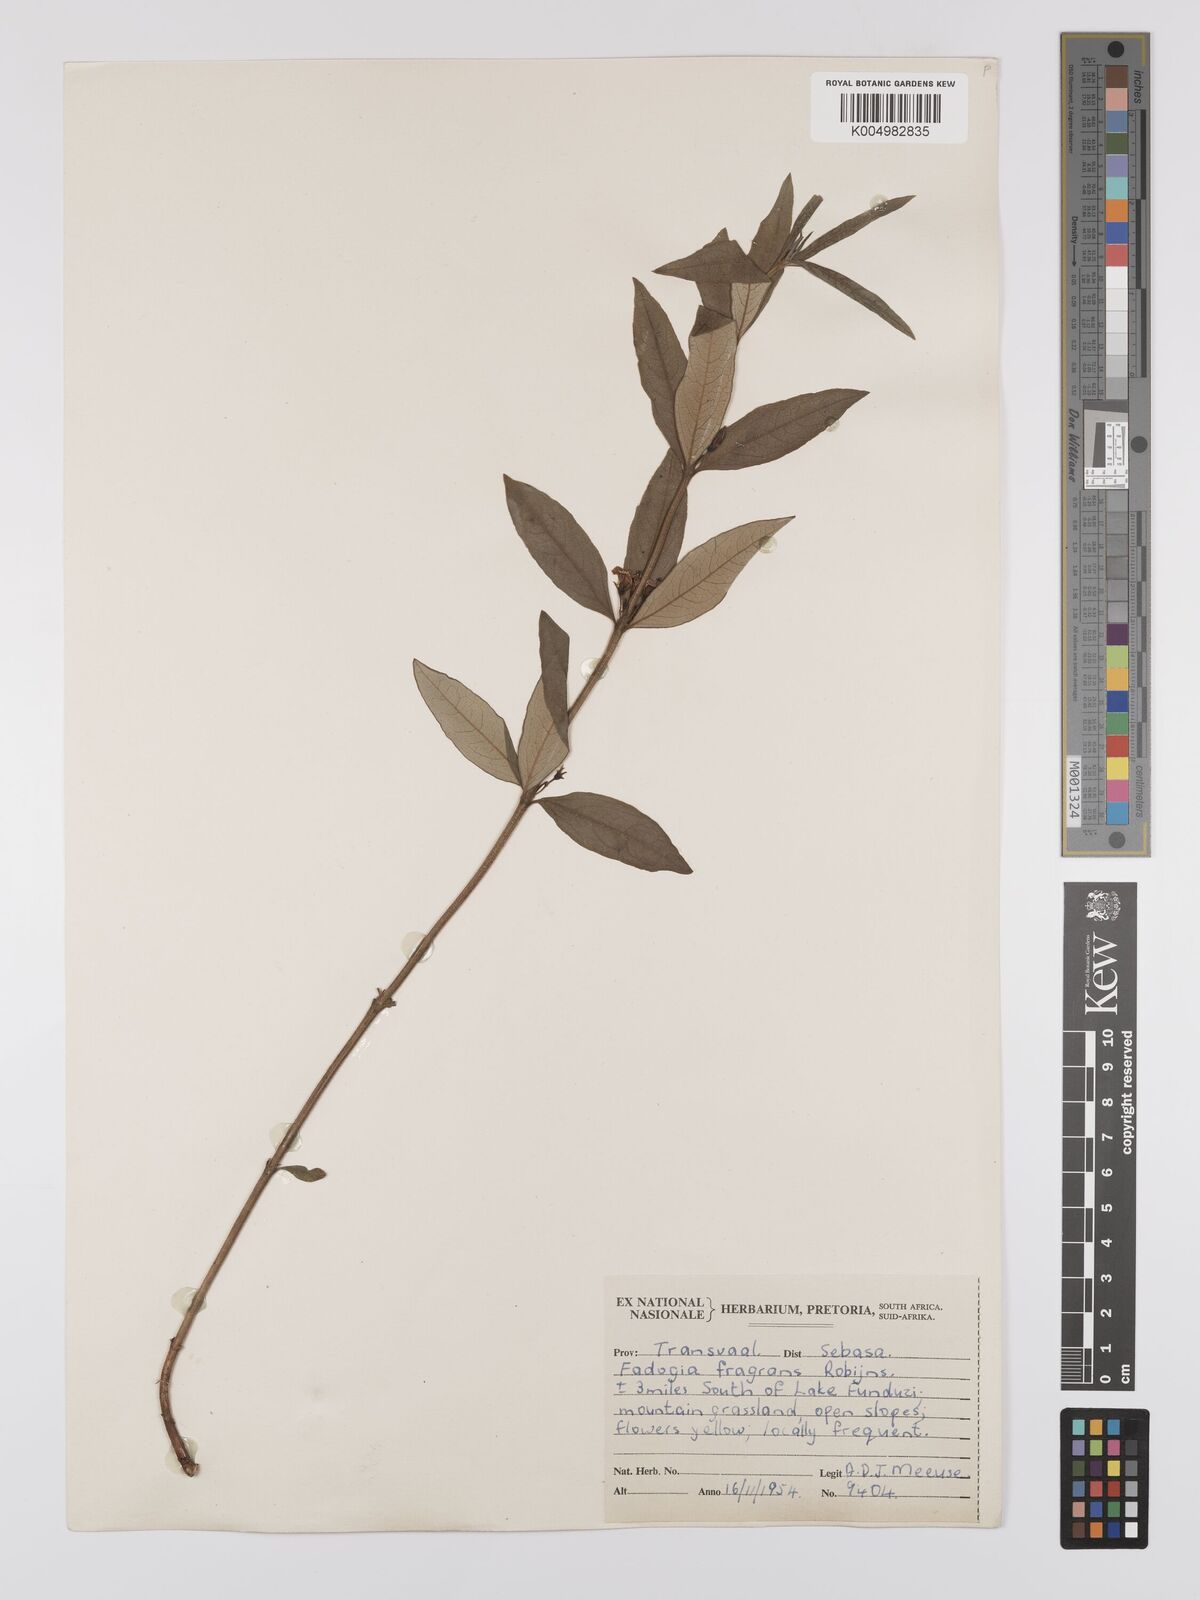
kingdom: Plantae
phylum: Tracheophyta
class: Magnoliopsida
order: Gentianales
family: Rubiaceae
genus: Fadogia
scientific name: Fadogia triphylla
